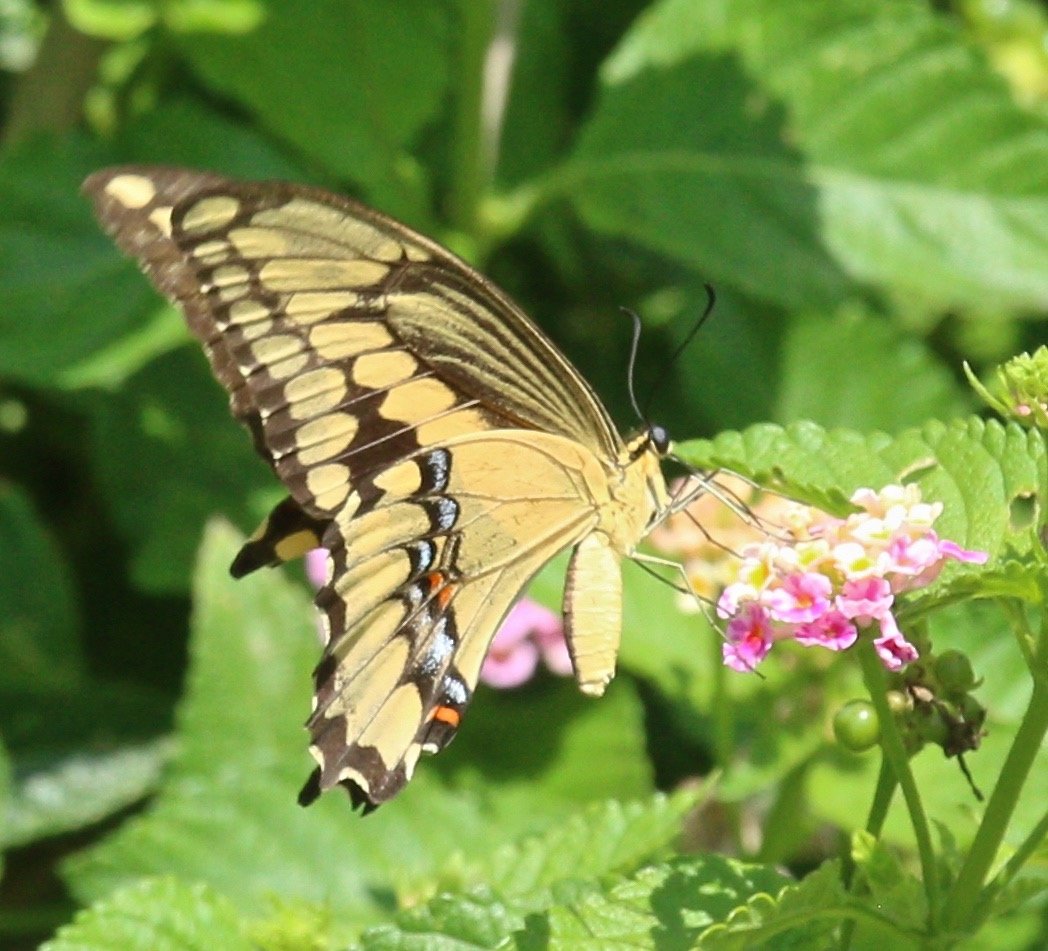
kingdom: Animalia
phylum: Arthropoda
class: Insecta
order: Lepidoptera
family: Papilionidae
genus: Papilio
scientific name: Papilio
